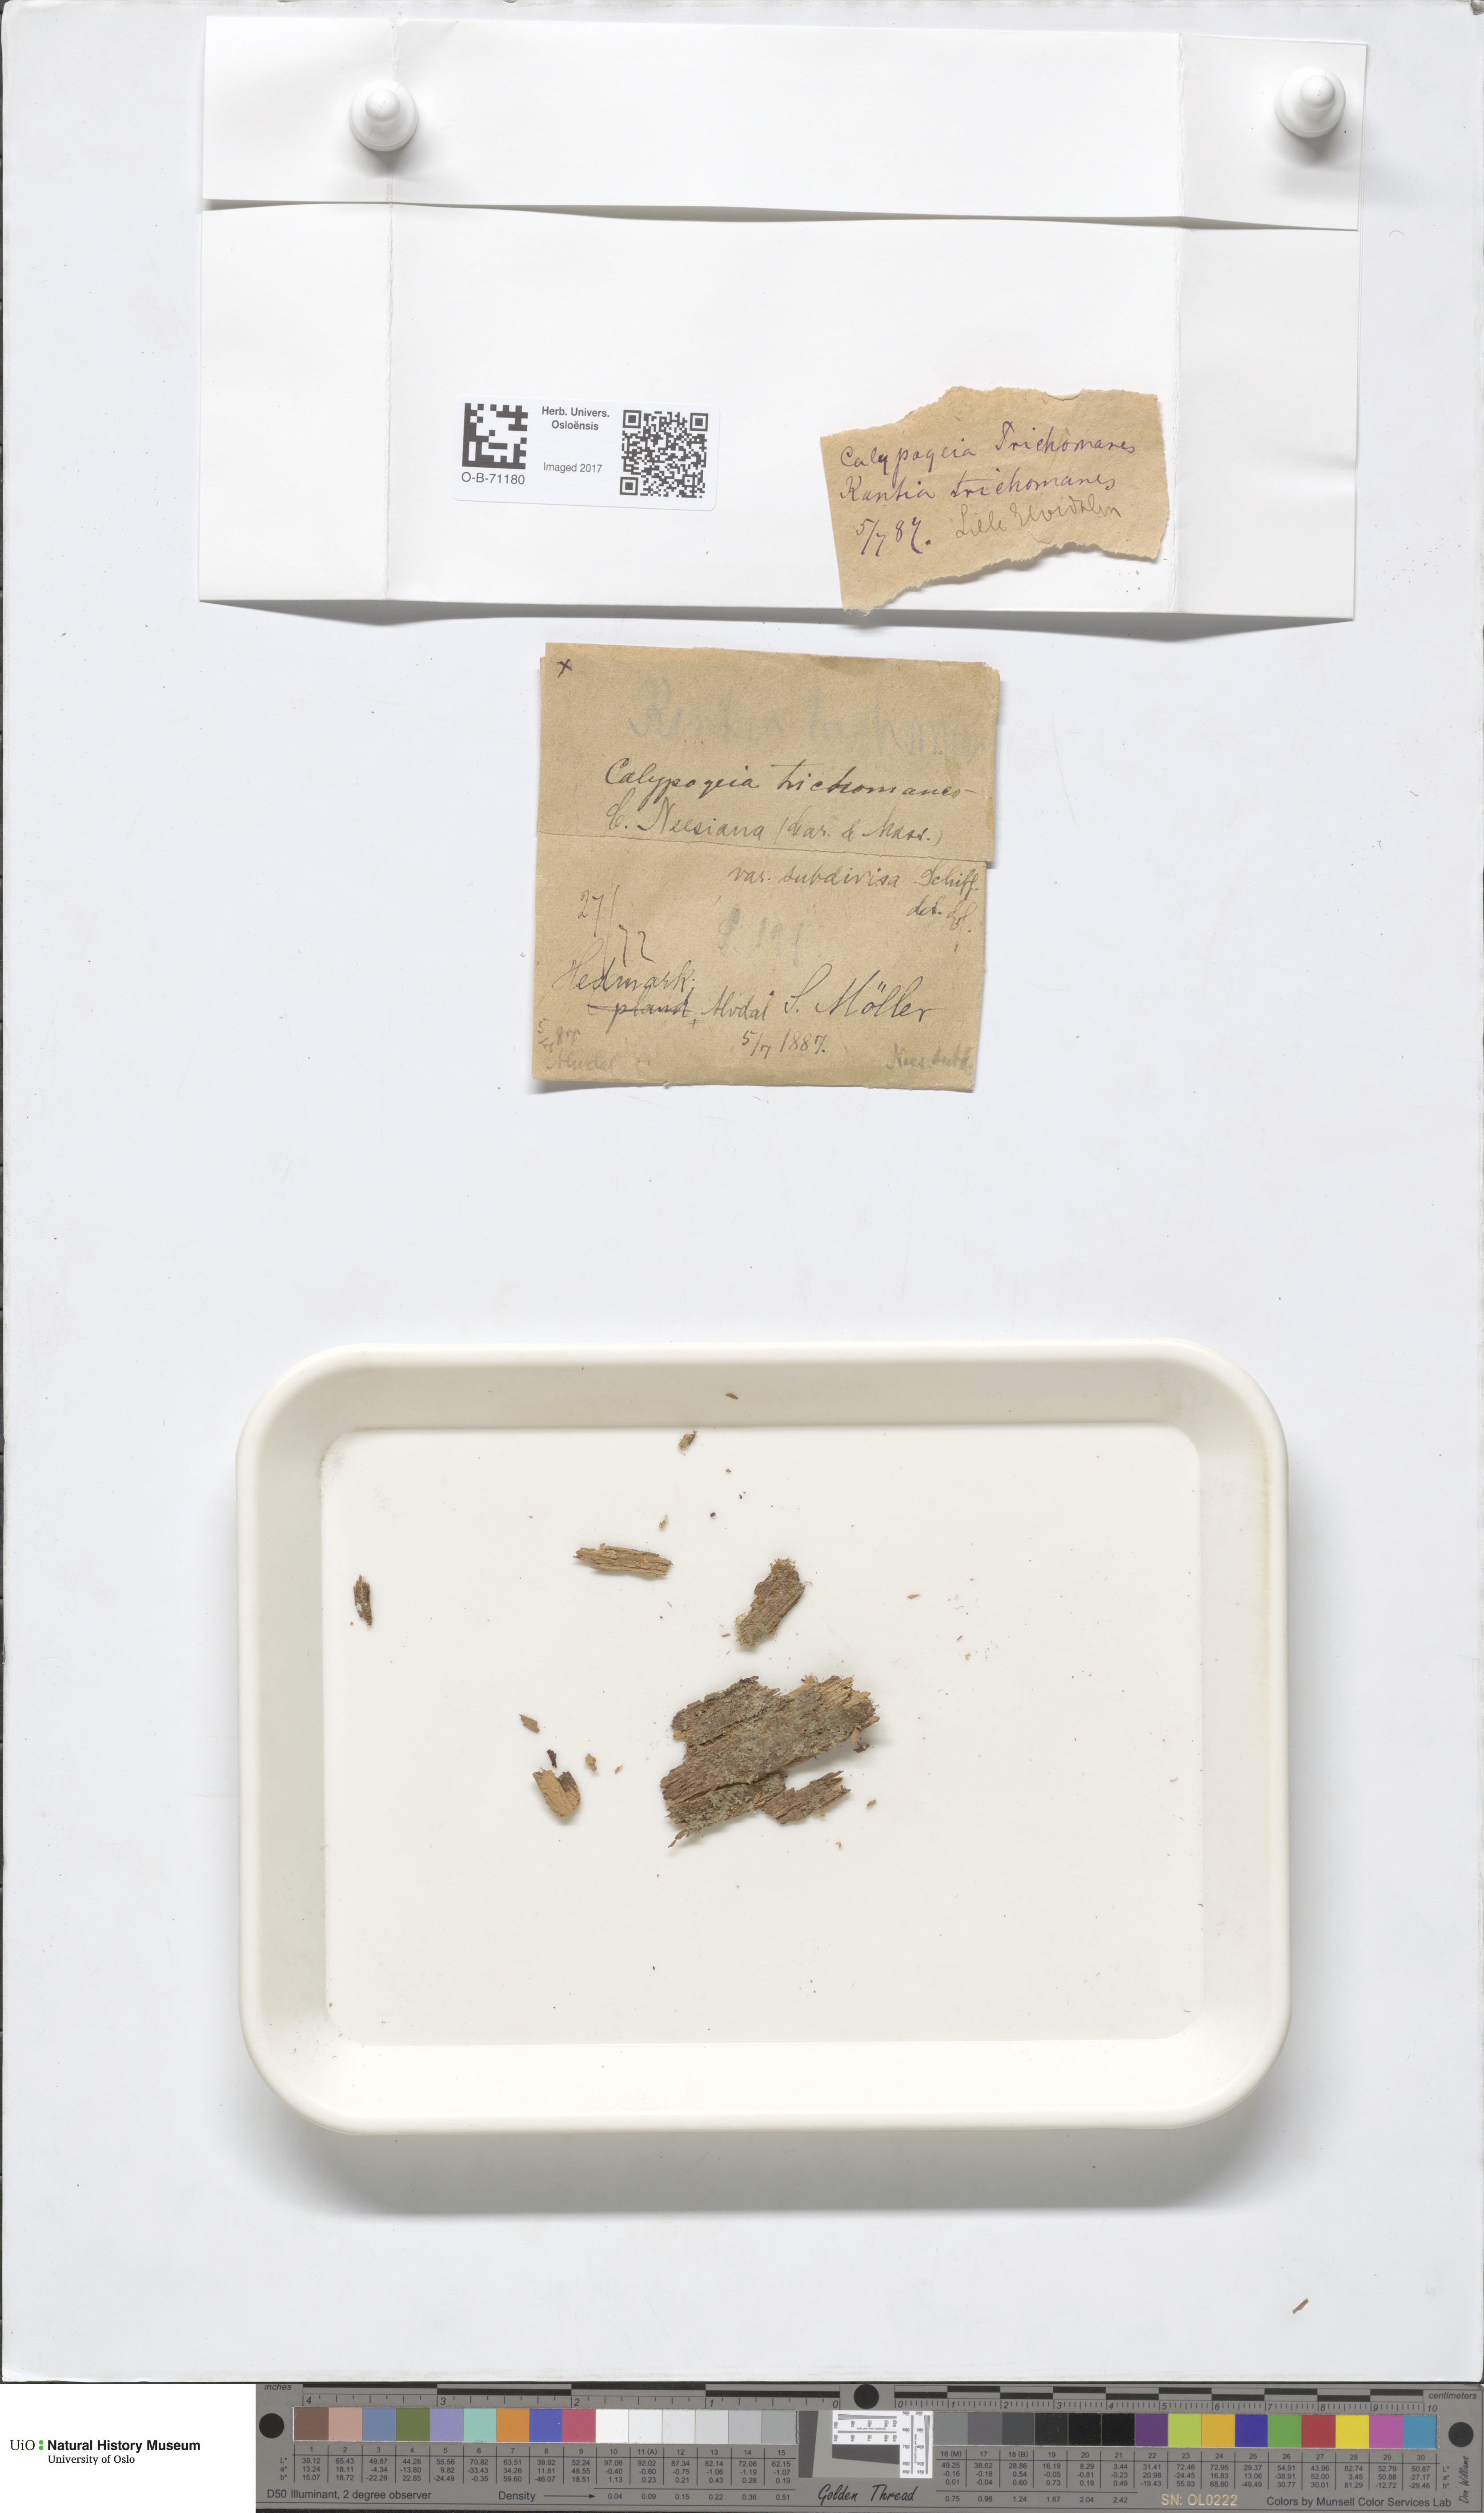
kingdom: Plantae
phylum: Marchantiophyta
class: Jungermanniopsida
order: Jungermanniales
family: Calypogeiaceae
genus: Calypogeia
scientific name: Calypogeia neesiana
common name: Nees  pouchwort
